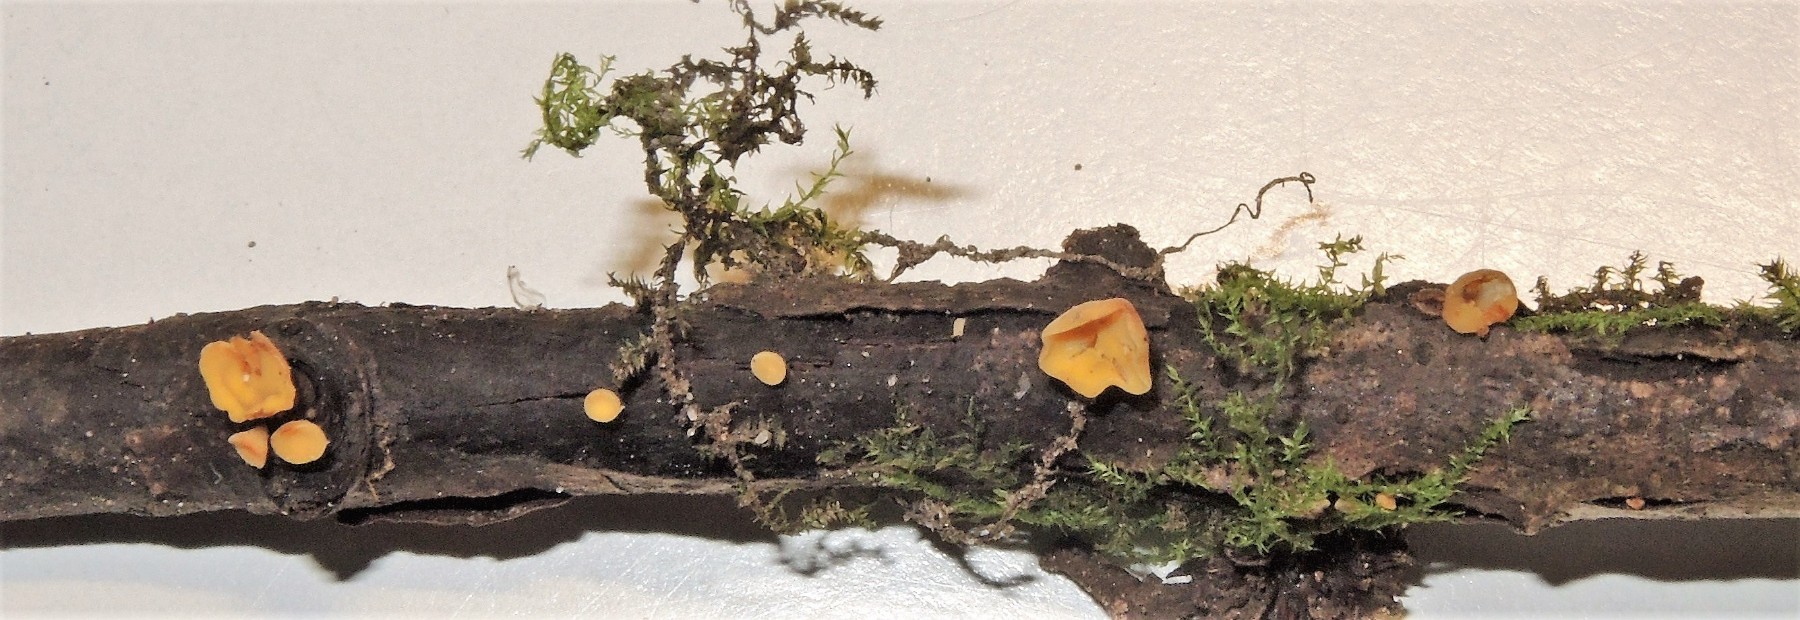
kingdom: Fungi
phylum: Ascomycota
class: Leotiomycetes
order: Helotiales
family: Helotiaceae
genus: Hymenoscyphus
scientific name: Hymenoscyphus calyculus
